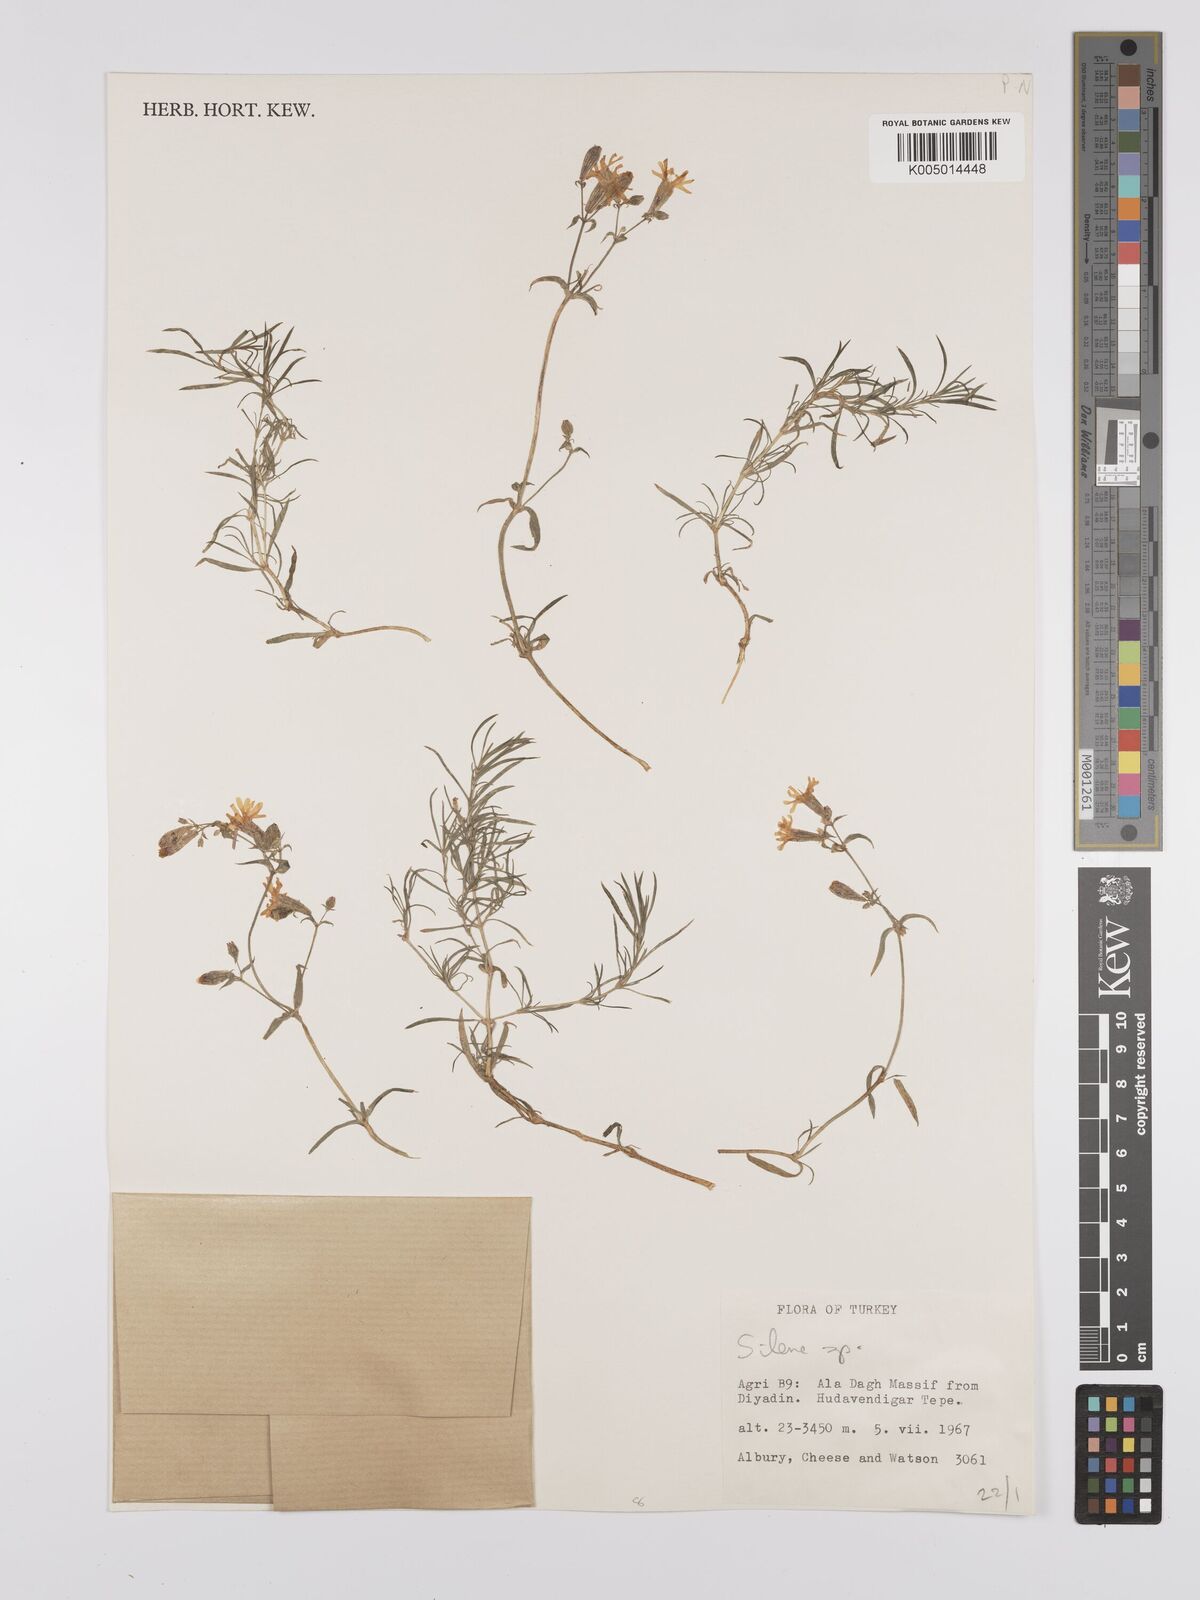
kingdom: Plantae
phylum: Tracheophyta
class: Magnoliopsida
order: Caryophyllales
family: Caryophyllaceae
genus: Silene
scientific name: Silene
